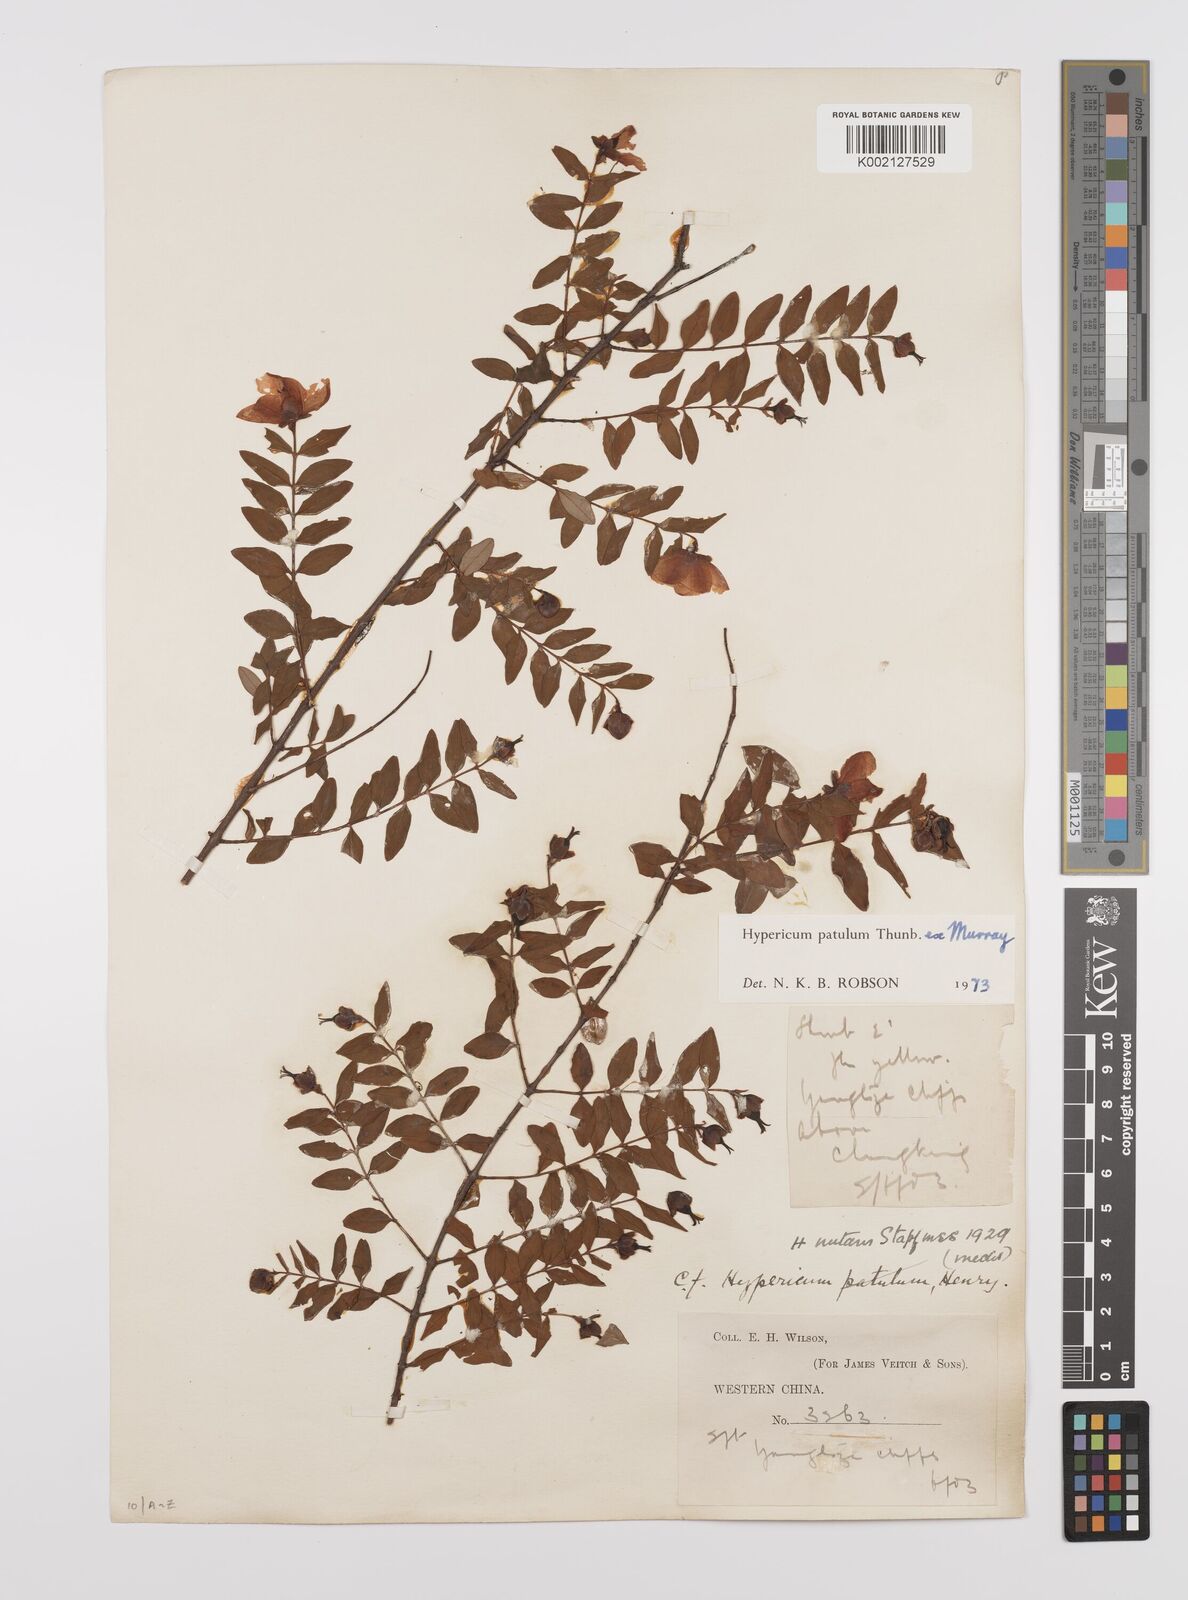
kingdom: Plantae
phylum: Tracheophyta
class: Magnoliopsida
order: Malpighiales
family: Hypericaceae
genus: Hypericum
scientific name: Hypericum patulum
